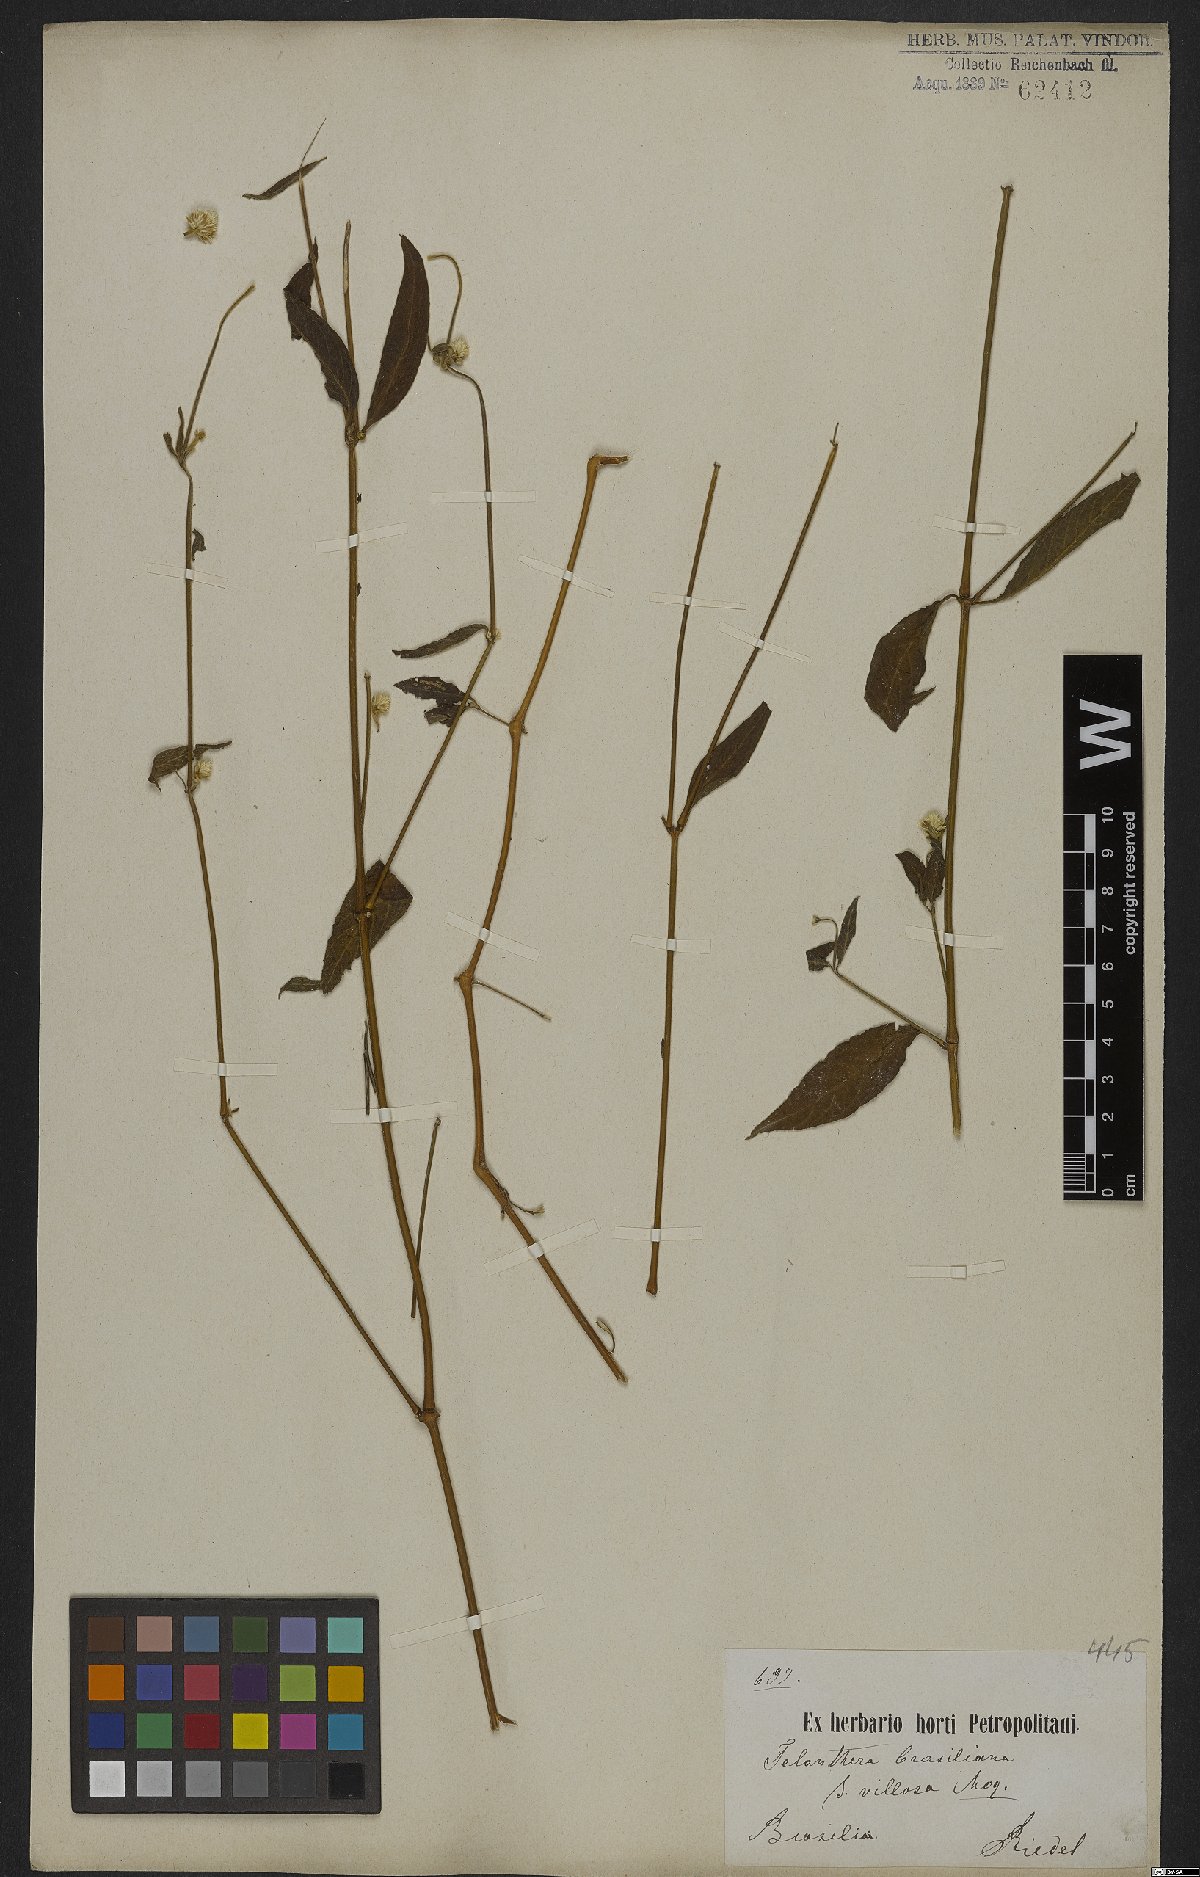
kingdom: Plantae
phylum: Tracheophyta
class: Magnoliopsida
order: Caryophyllales
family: Amaranthaceae
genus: Alternanthera
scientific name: Alternanthera brasiliana
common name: Brazilian joyweed
